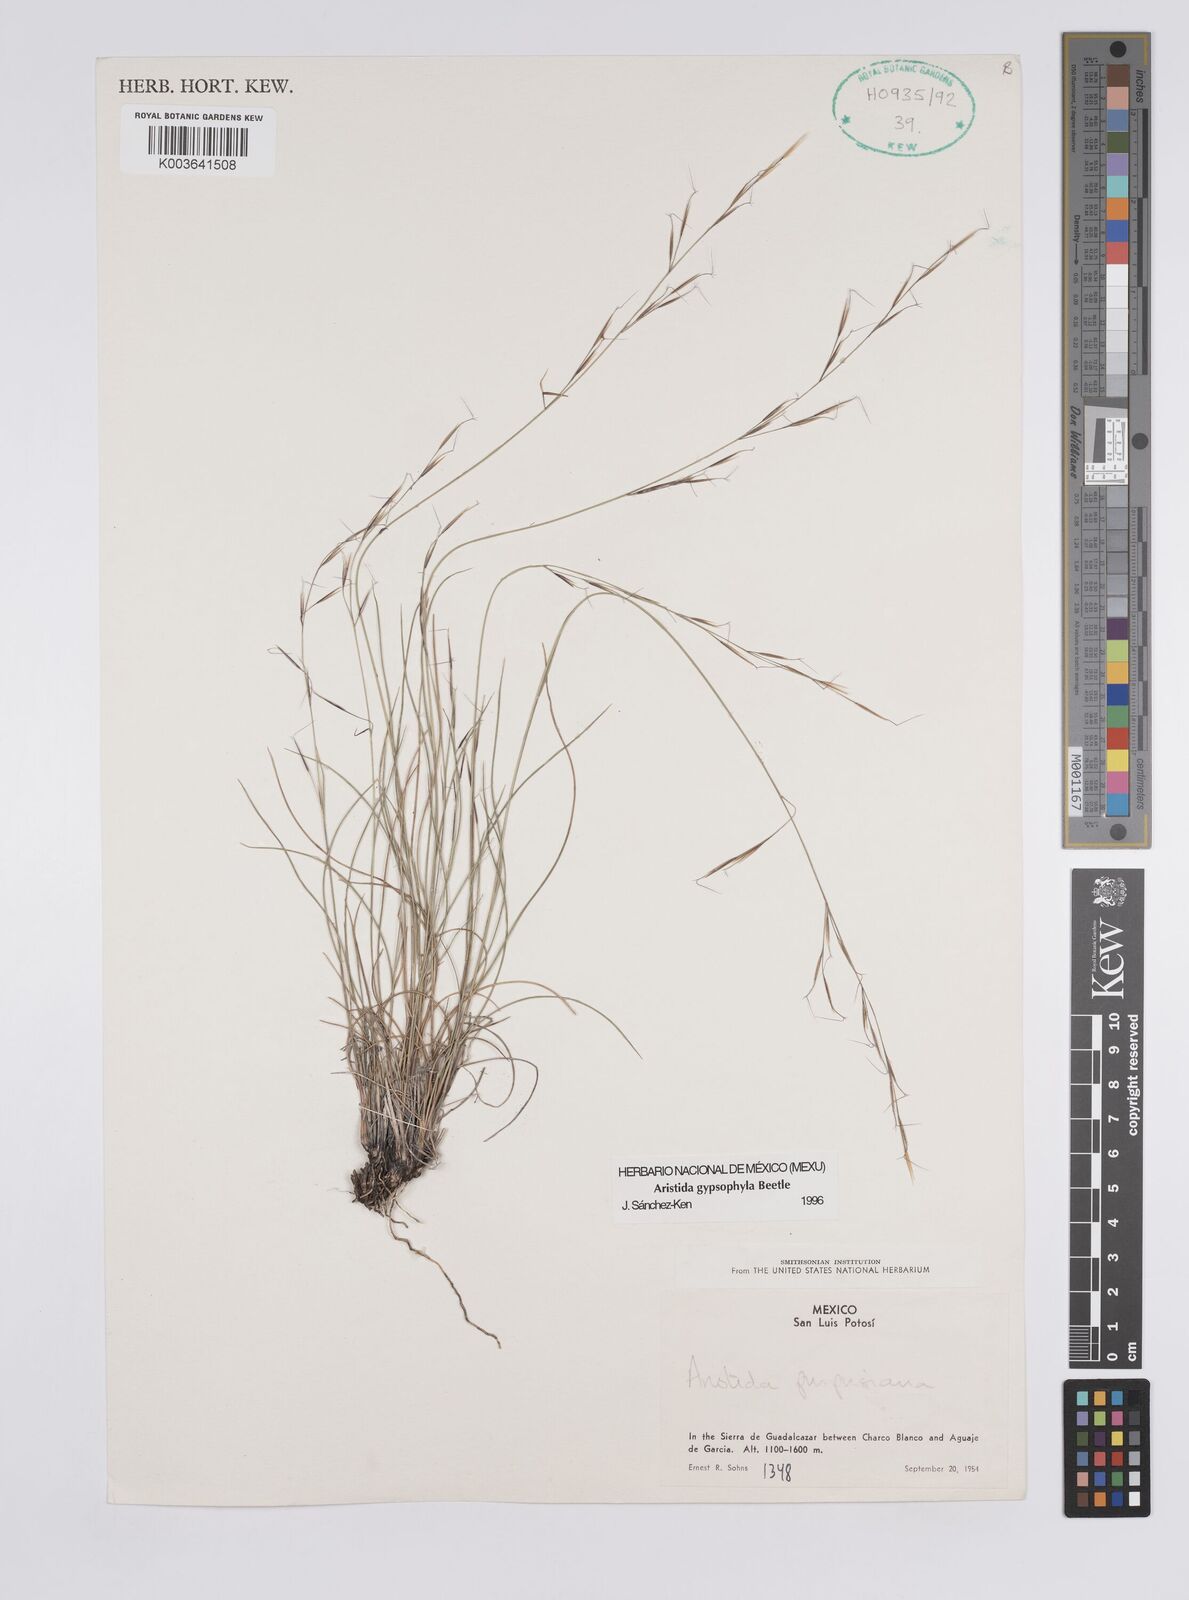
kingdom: Plantae
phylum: Tracheophyta
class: Liliopsida
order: Poales
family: Poaceae
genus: Aristida
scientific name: Aristida gypsophila
